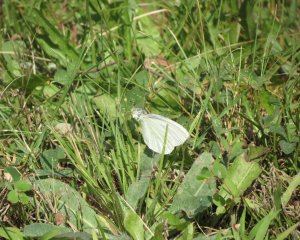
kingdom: Animalia
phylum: Arthropoda
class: Insecta
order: Lepidoptera
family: Pieridae
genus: Pieris
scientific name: Pieris oleracea
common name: Mustard White
